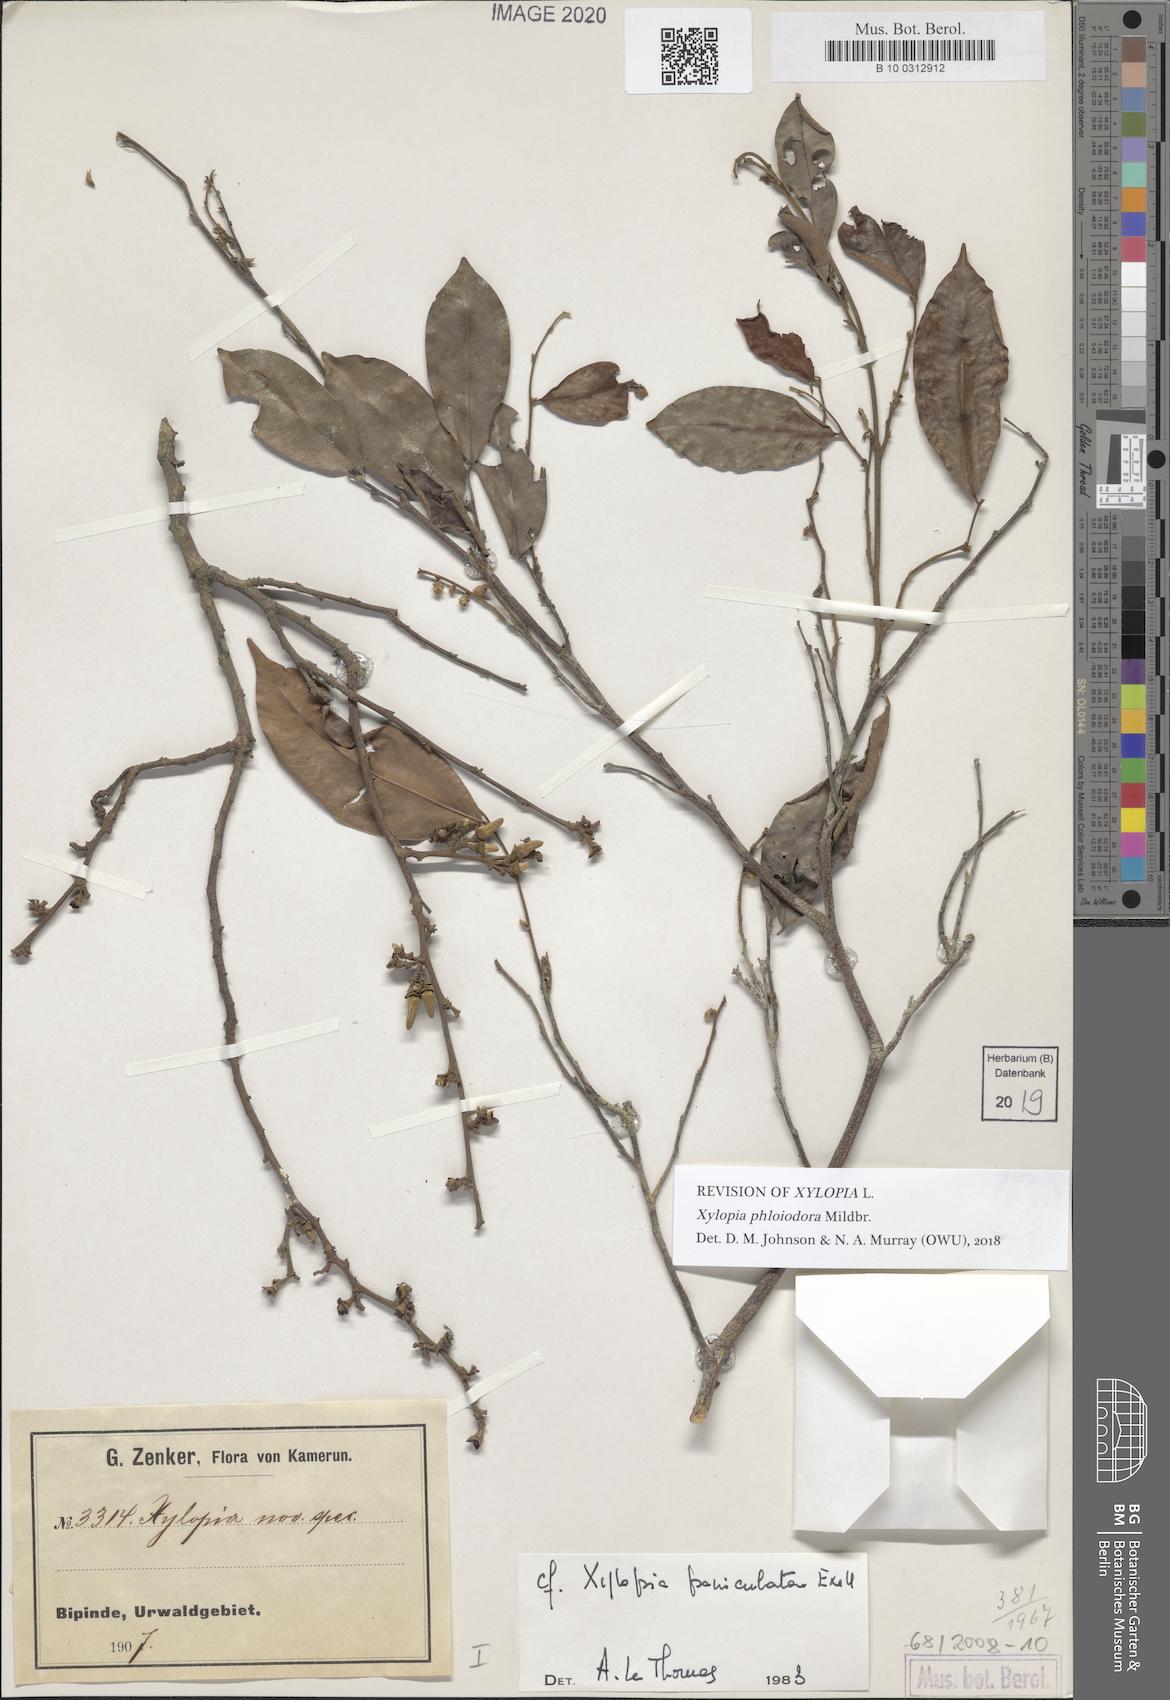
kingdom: Plantae
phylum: Tracheophyta
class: Magnoliopsida
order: Magnoliales
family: Annonaceae
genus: Xylopia
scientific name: Xylopia phloiodora
